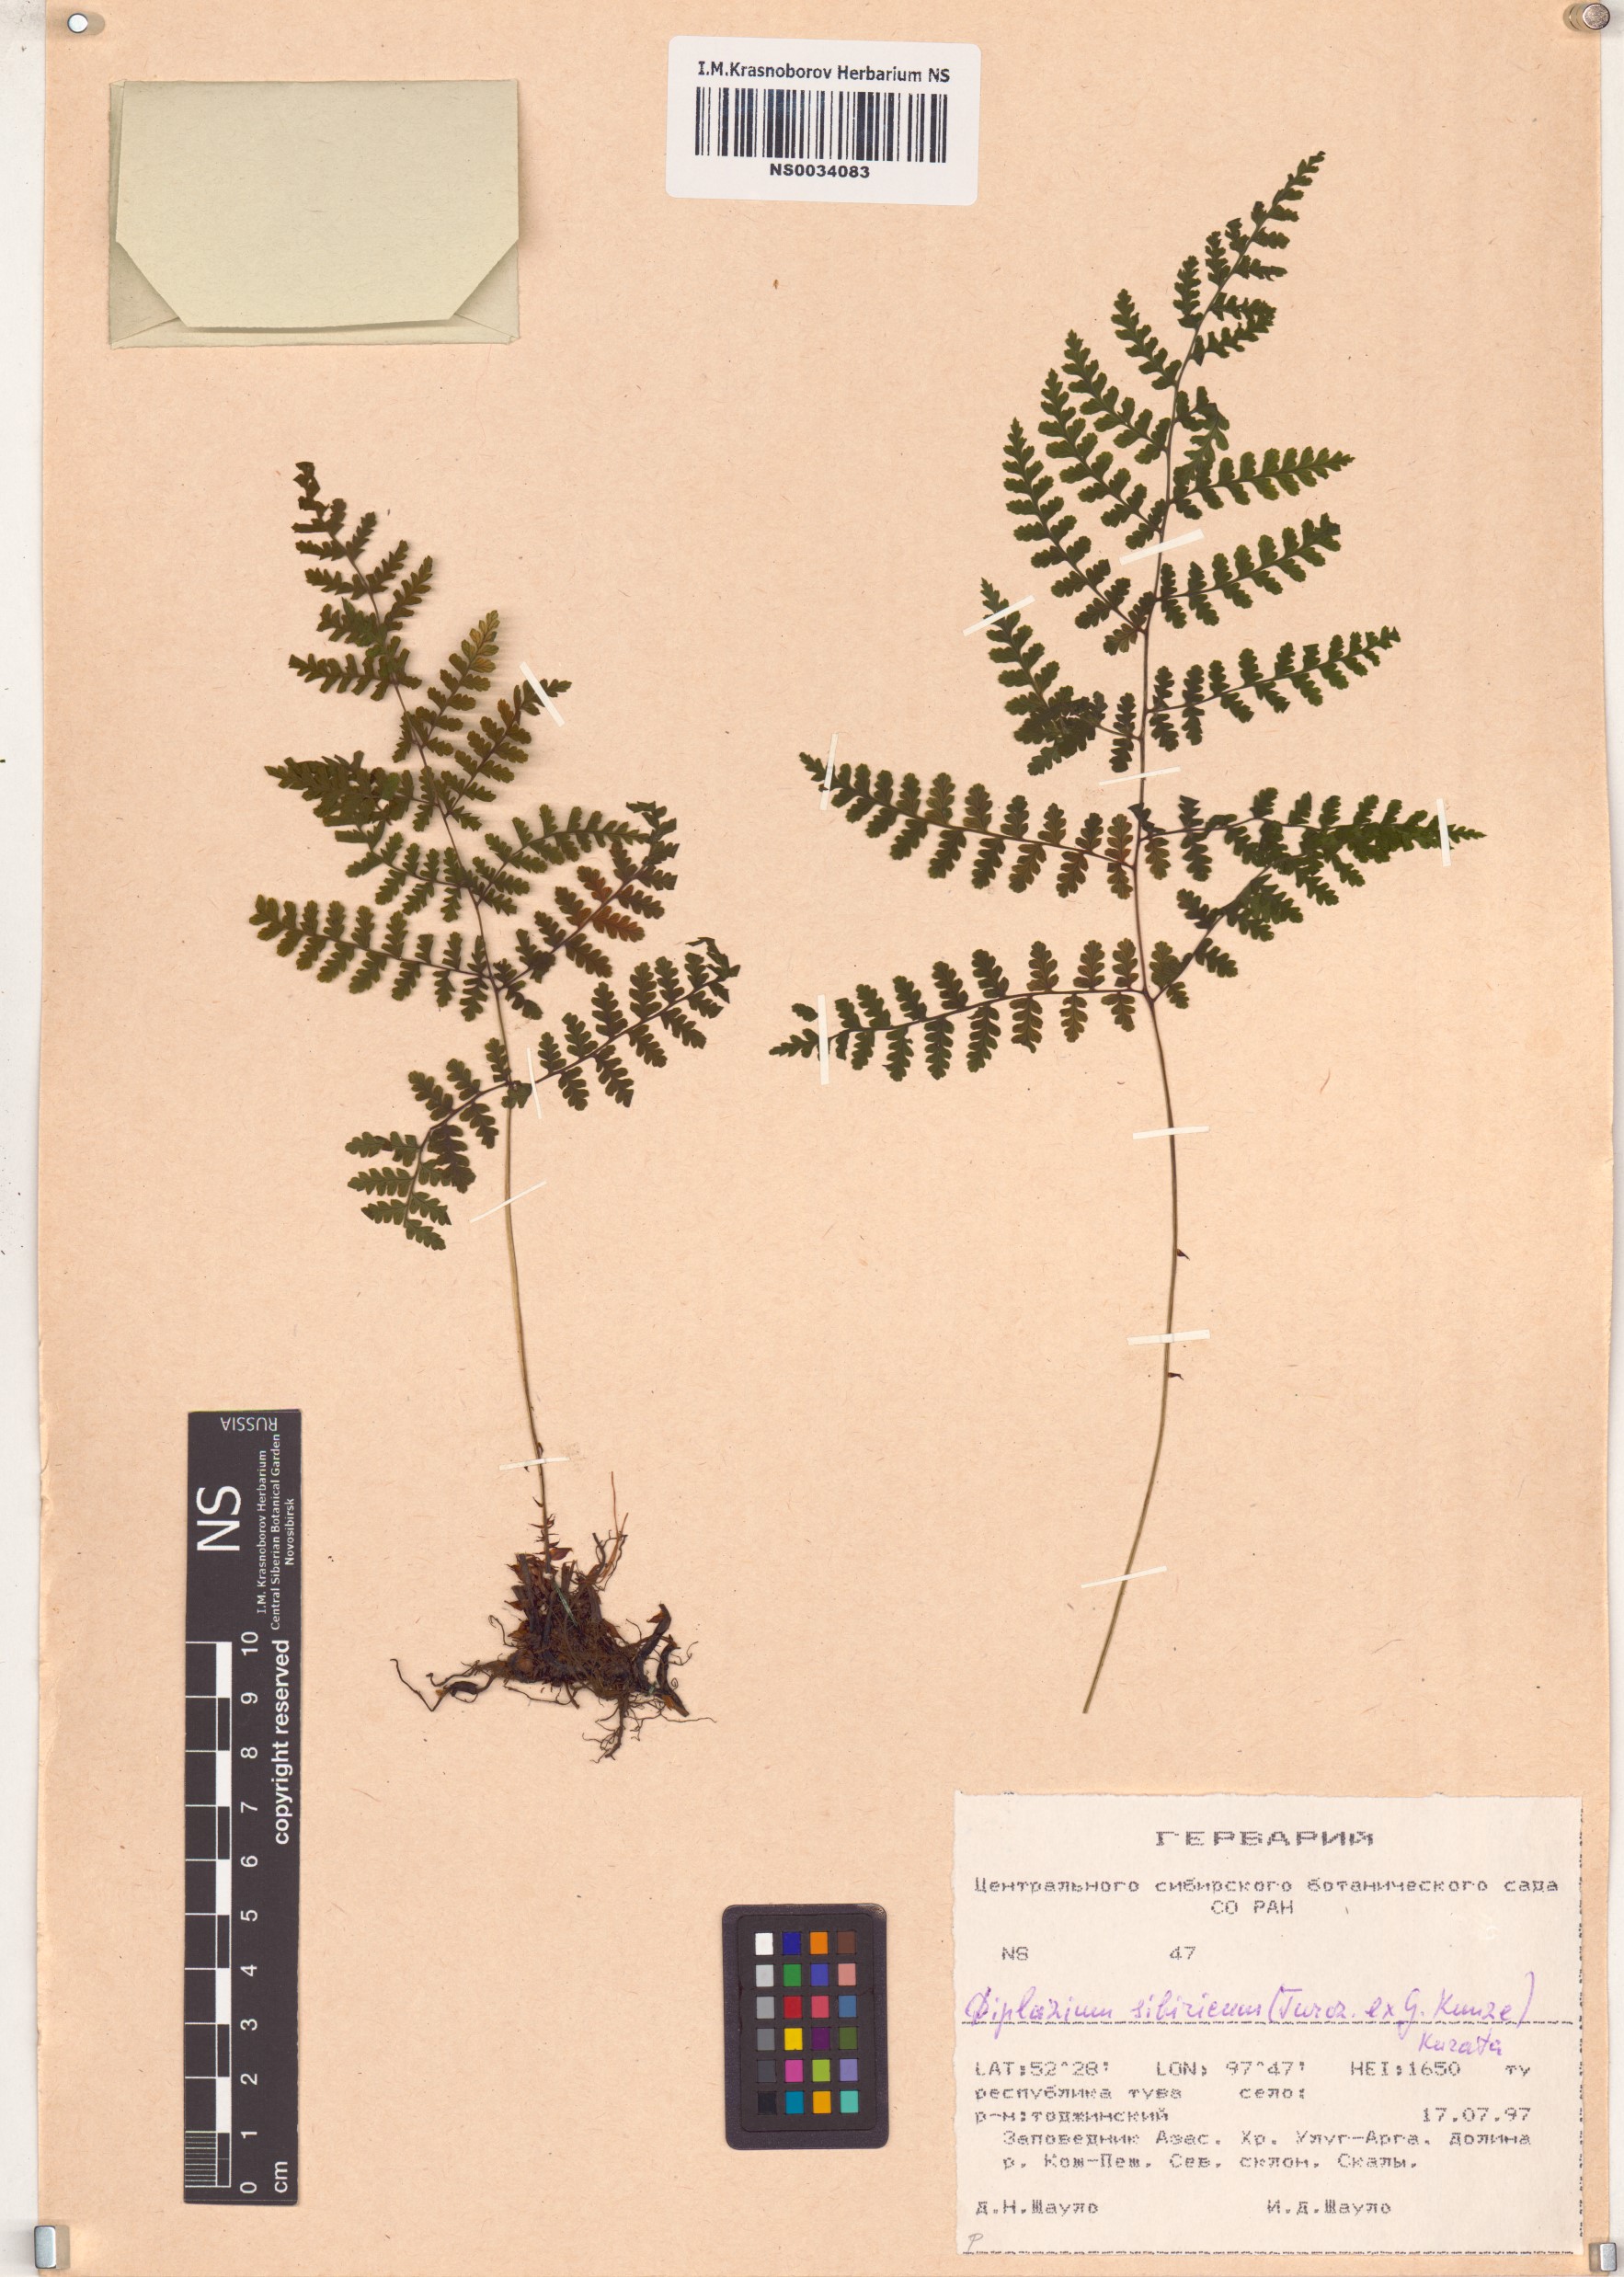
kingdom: Plantae
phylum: Tracheophyta
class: Polypodiopsida
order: Polypodiales
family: Athyriaceae
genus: Diplazium
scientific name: Diplazium sibiricum
